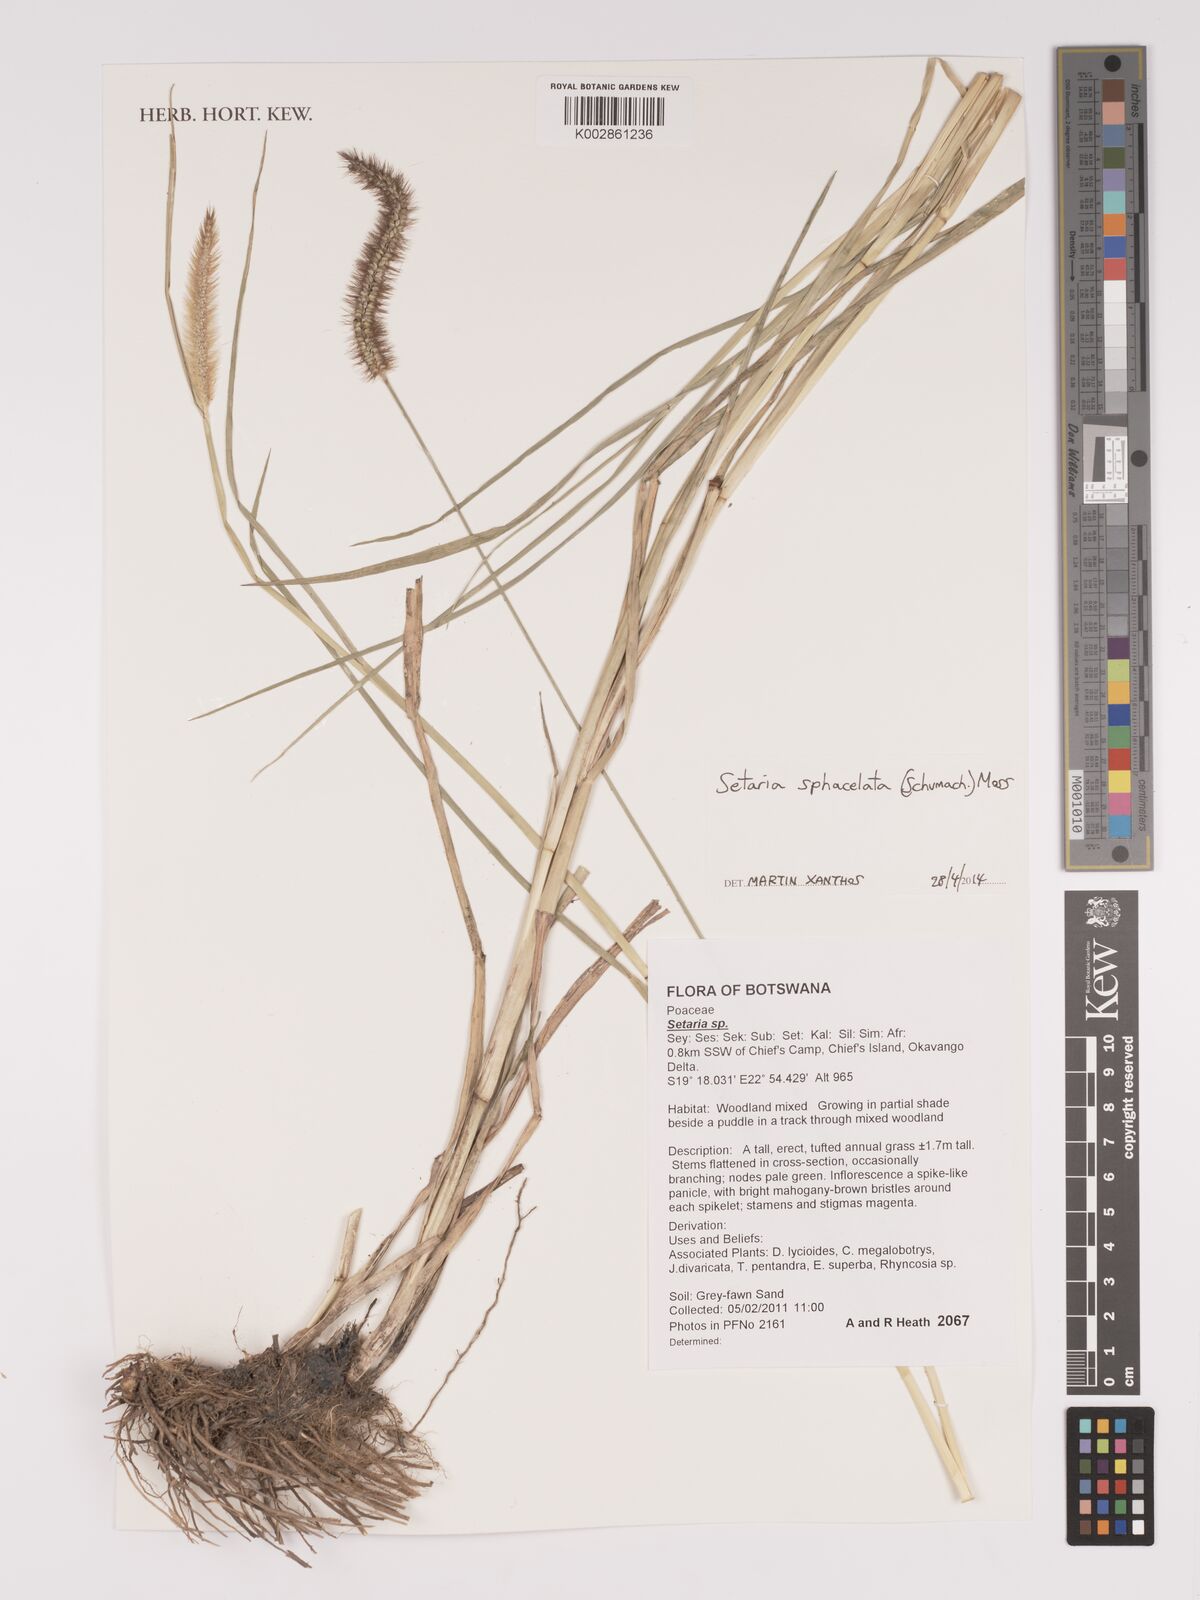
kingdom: Plantae
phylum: Tracheophyta
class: Liliopsida
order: Poales
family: Poaceae
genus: Setaria
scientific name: Setaria sphacelata
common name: African bristlegrass
